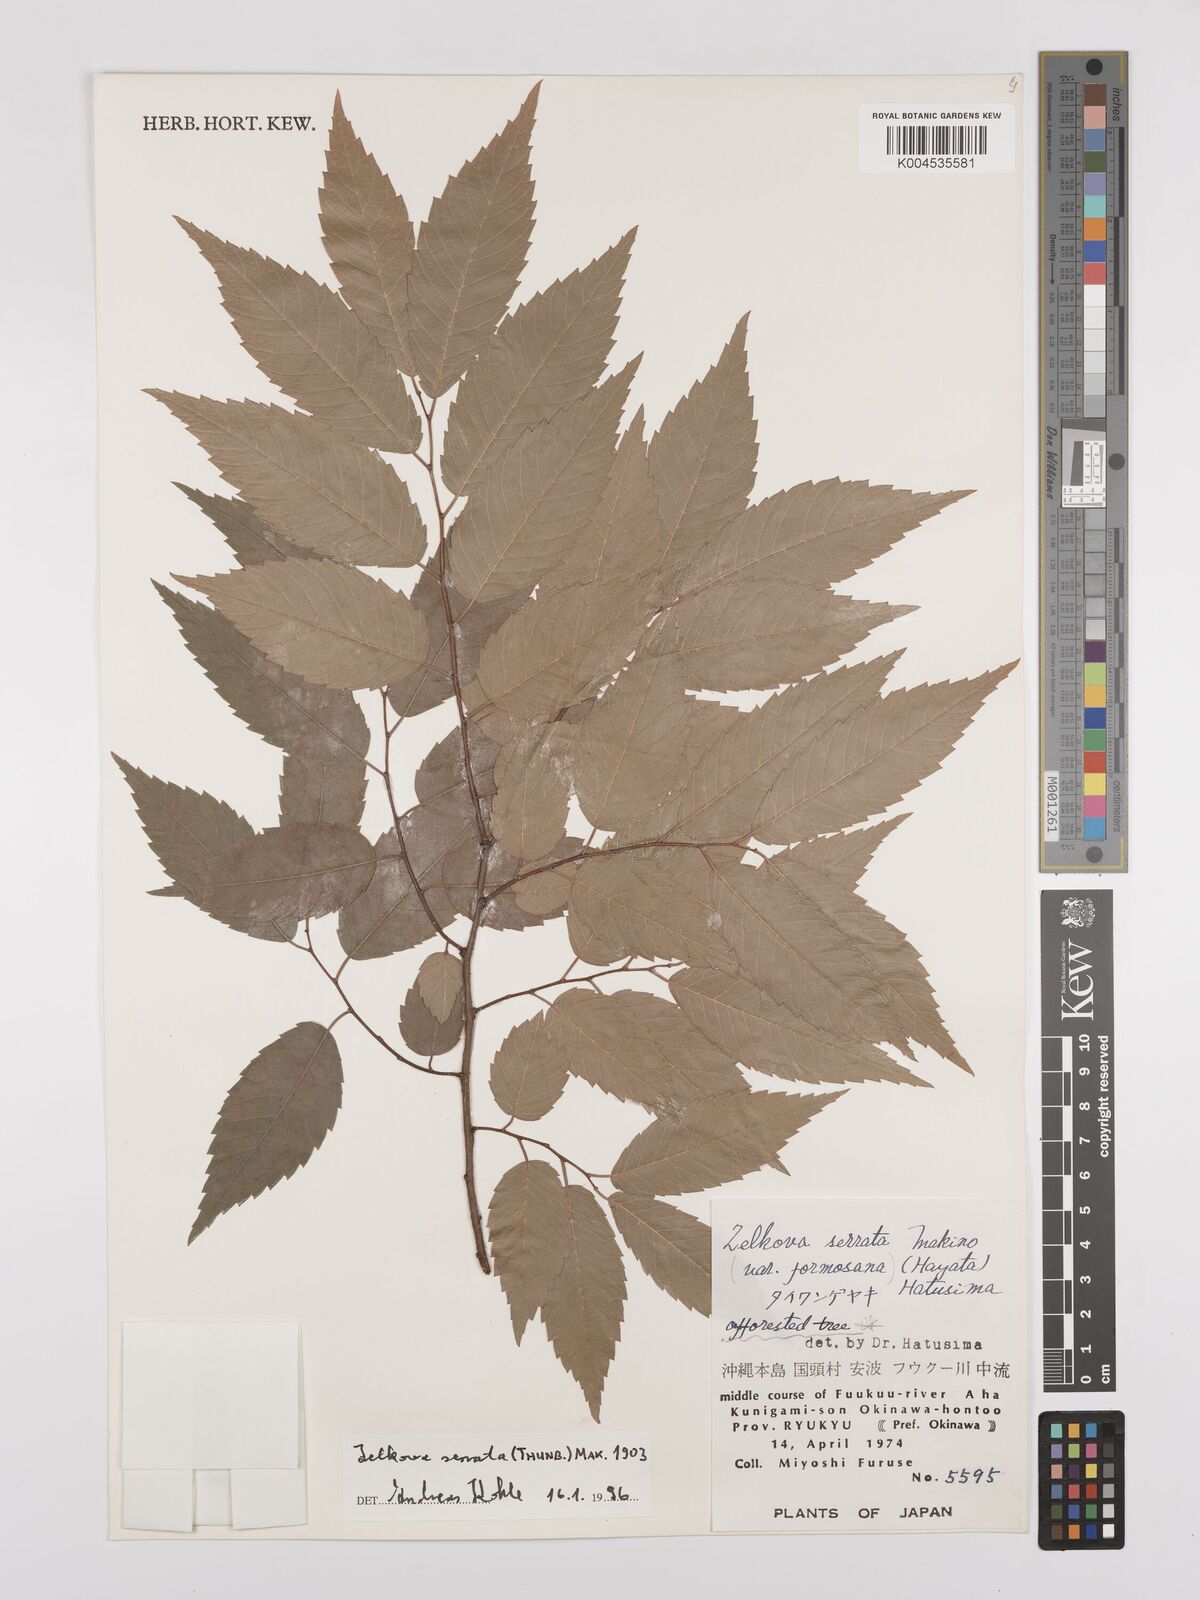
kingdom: Plantae
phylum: Tracheophyta
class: Magnoliopsida
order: Rosales
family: Ulmaceae
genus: Zelkova
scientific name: Zelkova serrata
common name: Japanese zelkova
